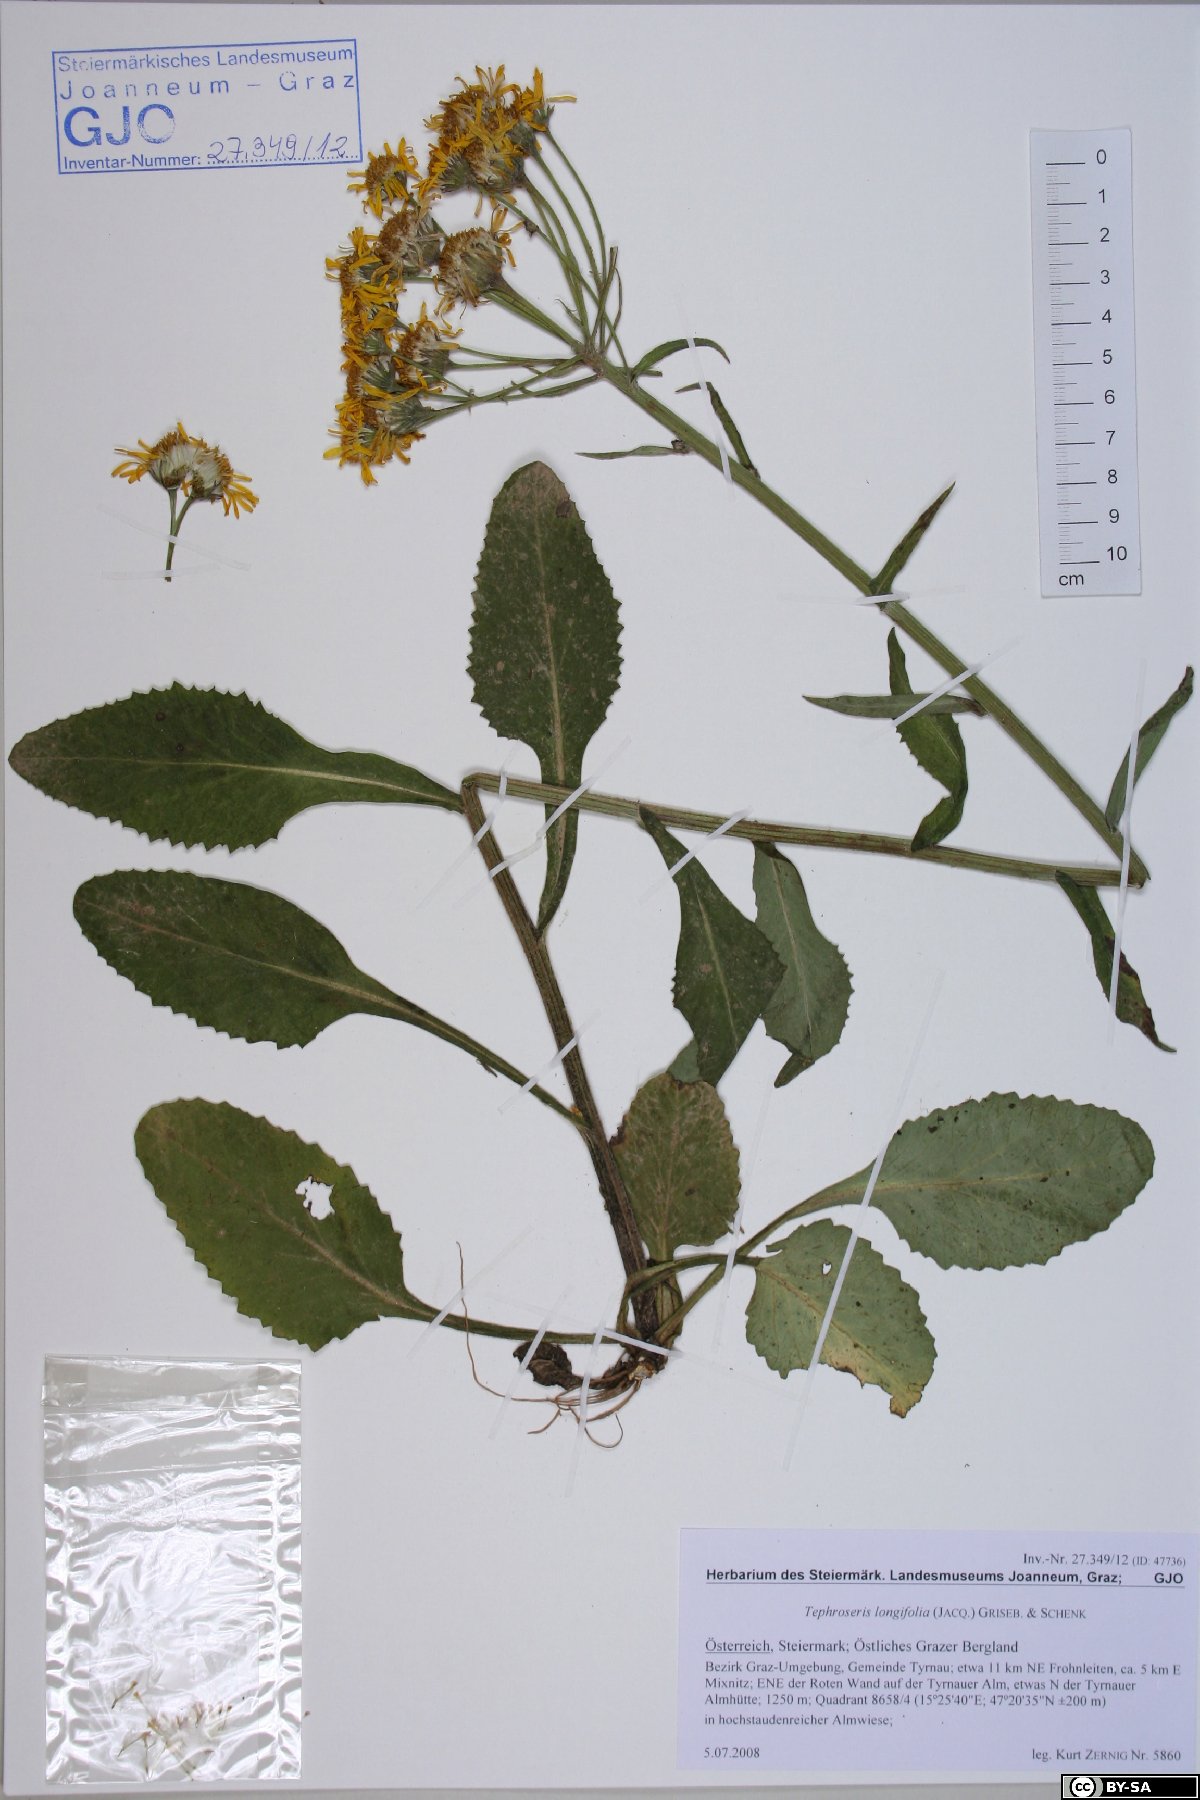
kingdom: Plantae
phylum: Tracheophyta
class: Magnoliopsida
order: Asterales
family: Asteraceae
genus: Tephroseris
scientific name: Tephroseris longifolia
